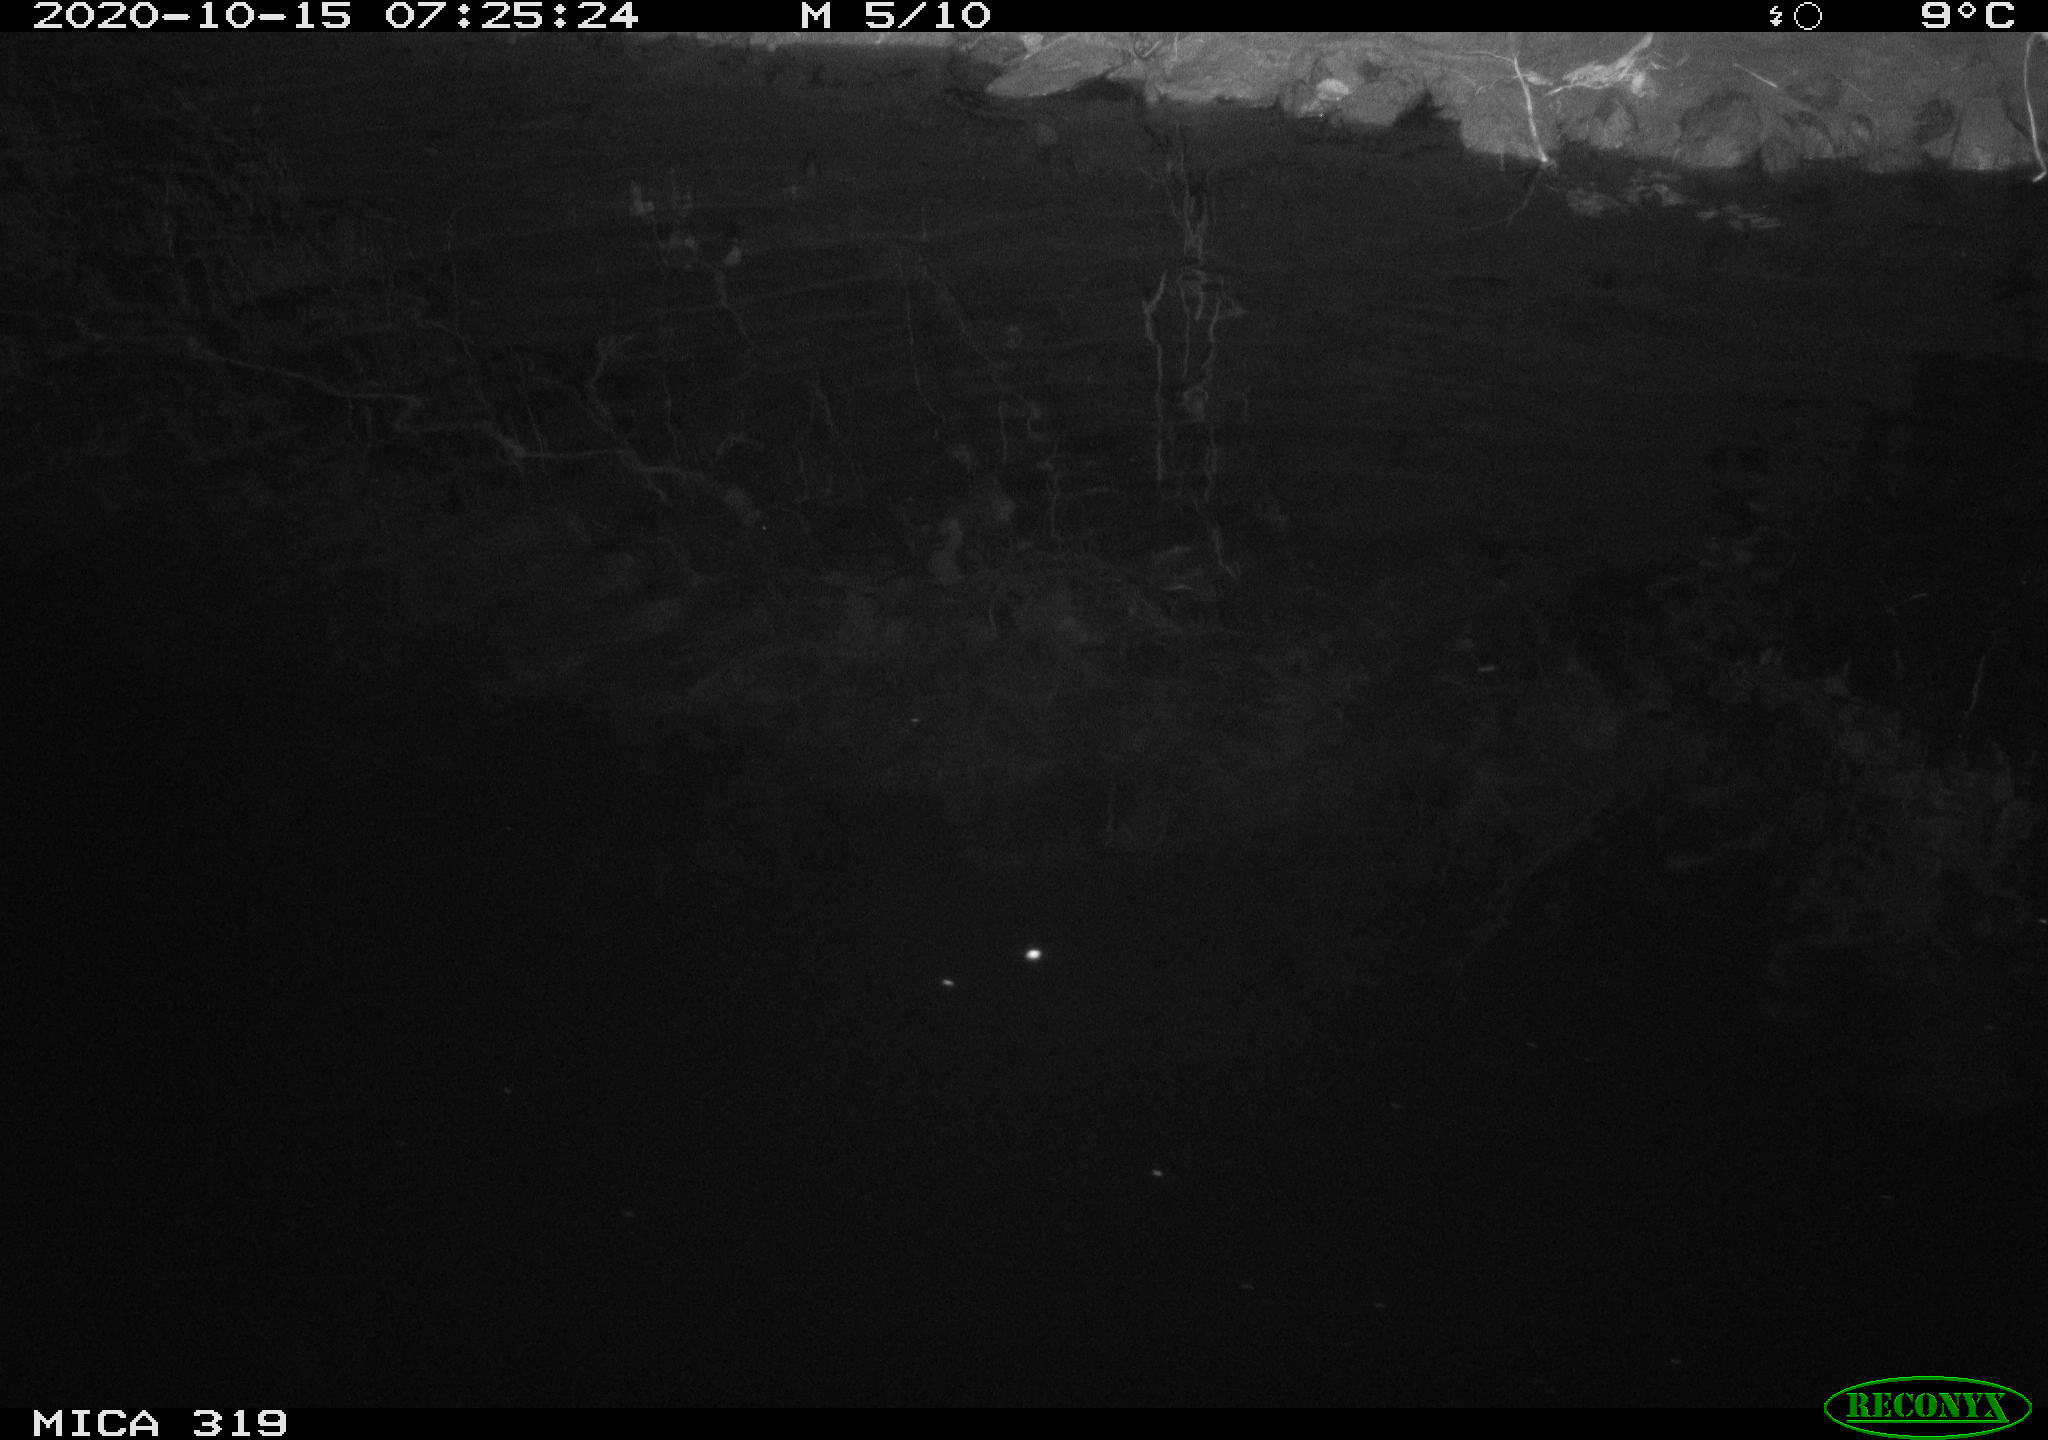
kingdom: Animalia
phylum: Chordata
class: Aves
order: Anseriformes
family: Anatidae
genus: Anas
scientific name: Anas platyrhynchos
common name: Mallard
